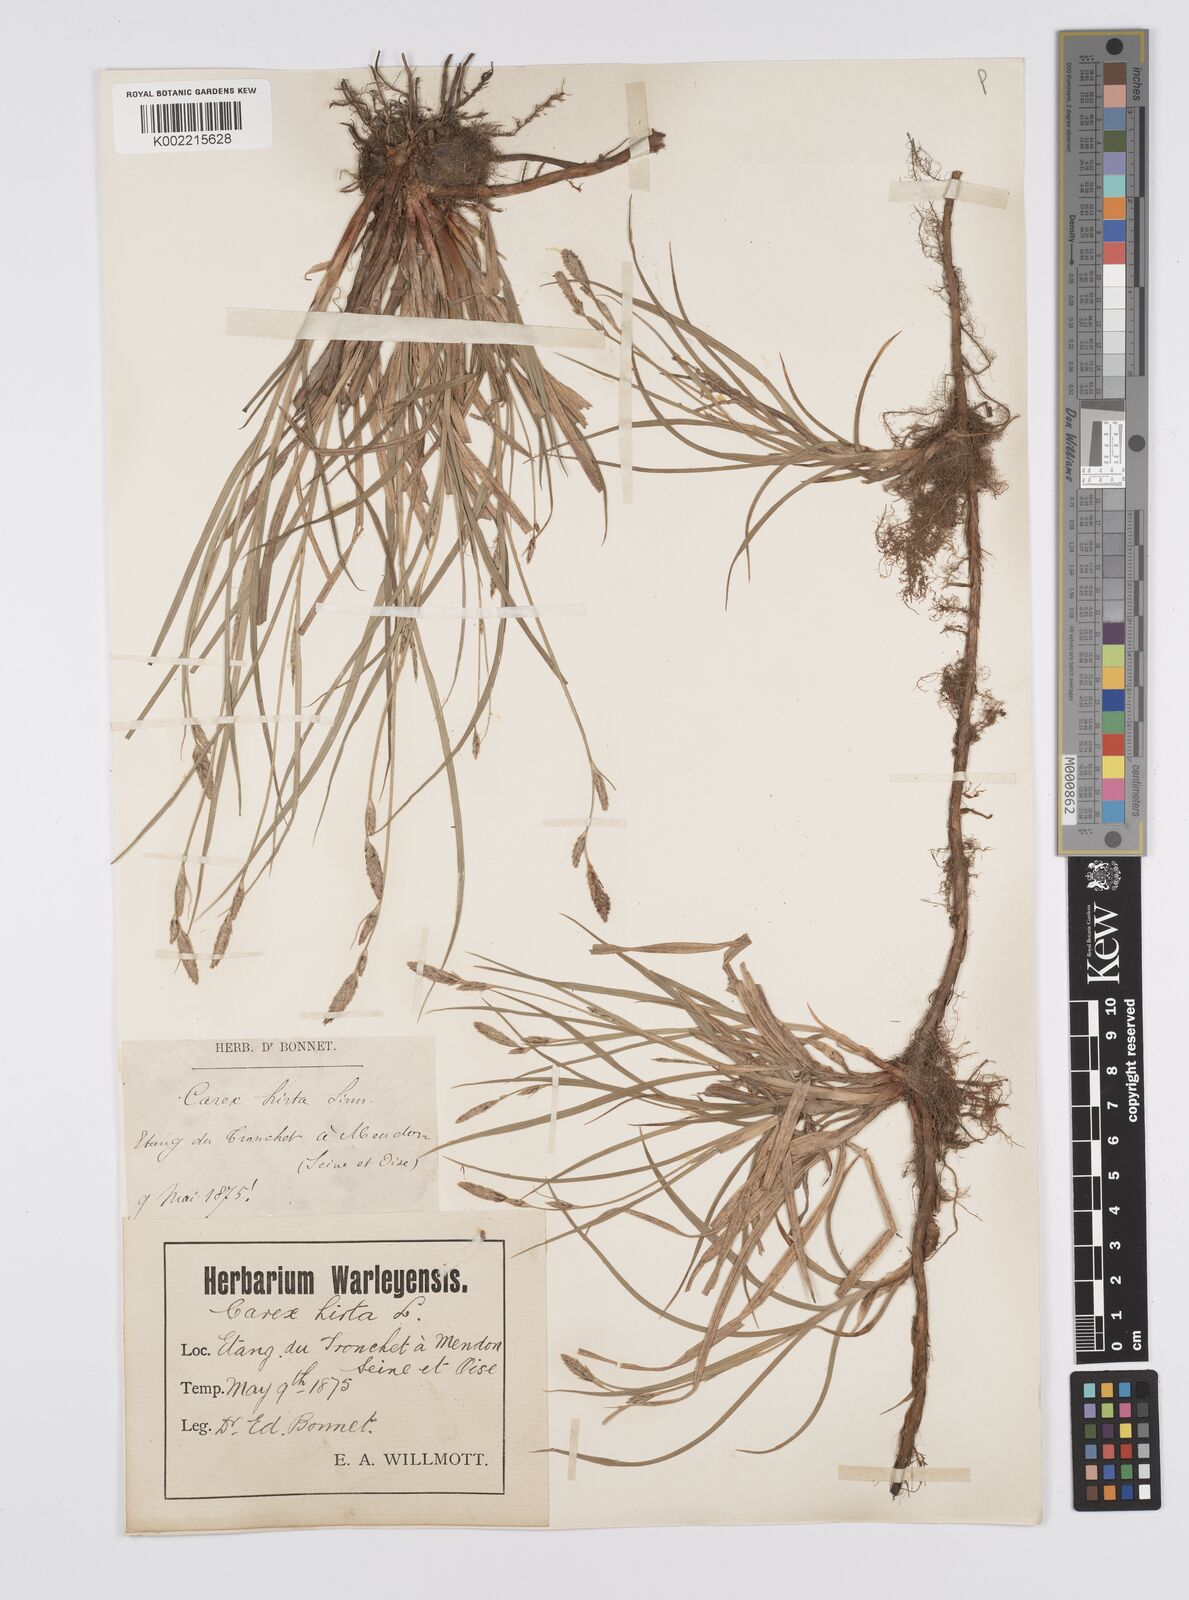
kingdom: Plantae
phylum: Tracheophyta
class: Liliopsida
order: Poales
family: Cyperaceae
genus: Carex
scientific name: Carex hirta
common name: Hairy sedge
